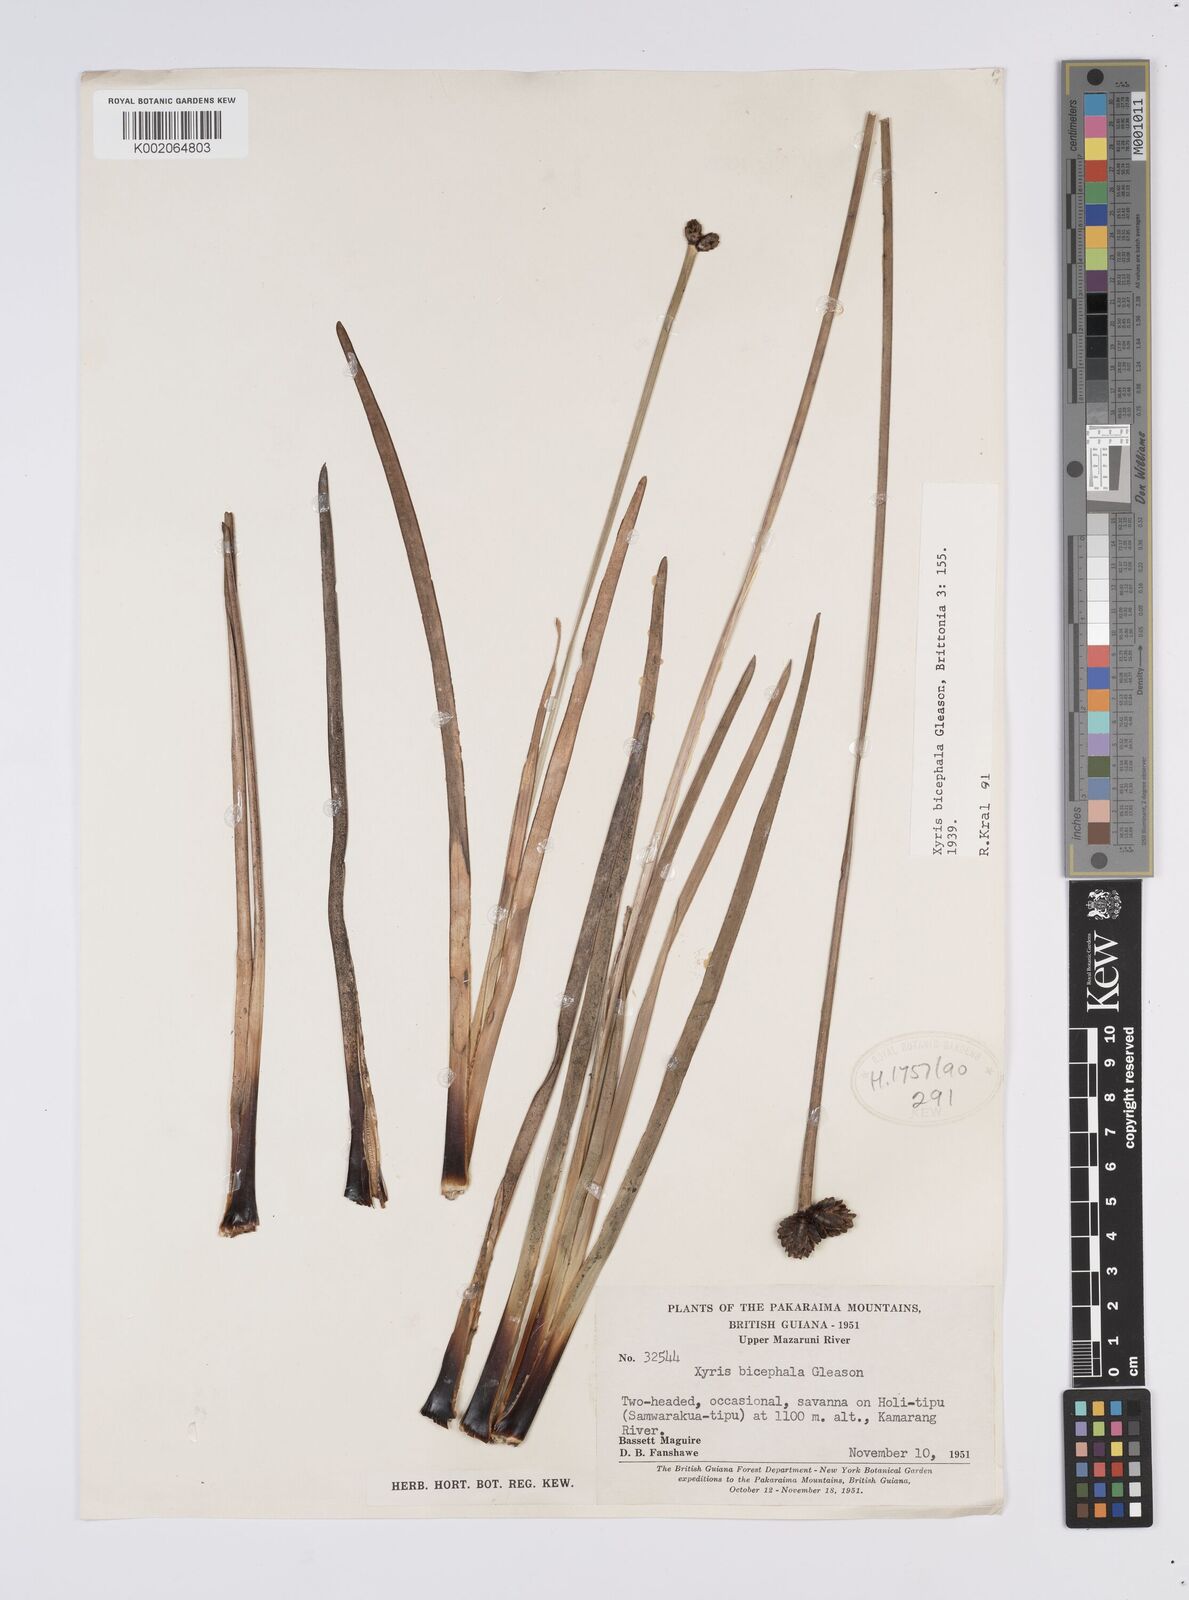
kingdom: Plantae
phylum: Tracheophyta
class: Liliopsida
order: Poales
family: Xyridaceae
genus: Xyris
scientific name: Xyris bicephala
